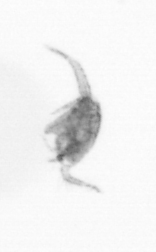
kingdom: Animalia
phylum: Arthropoda
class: Copepoda
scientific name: Copepoda
